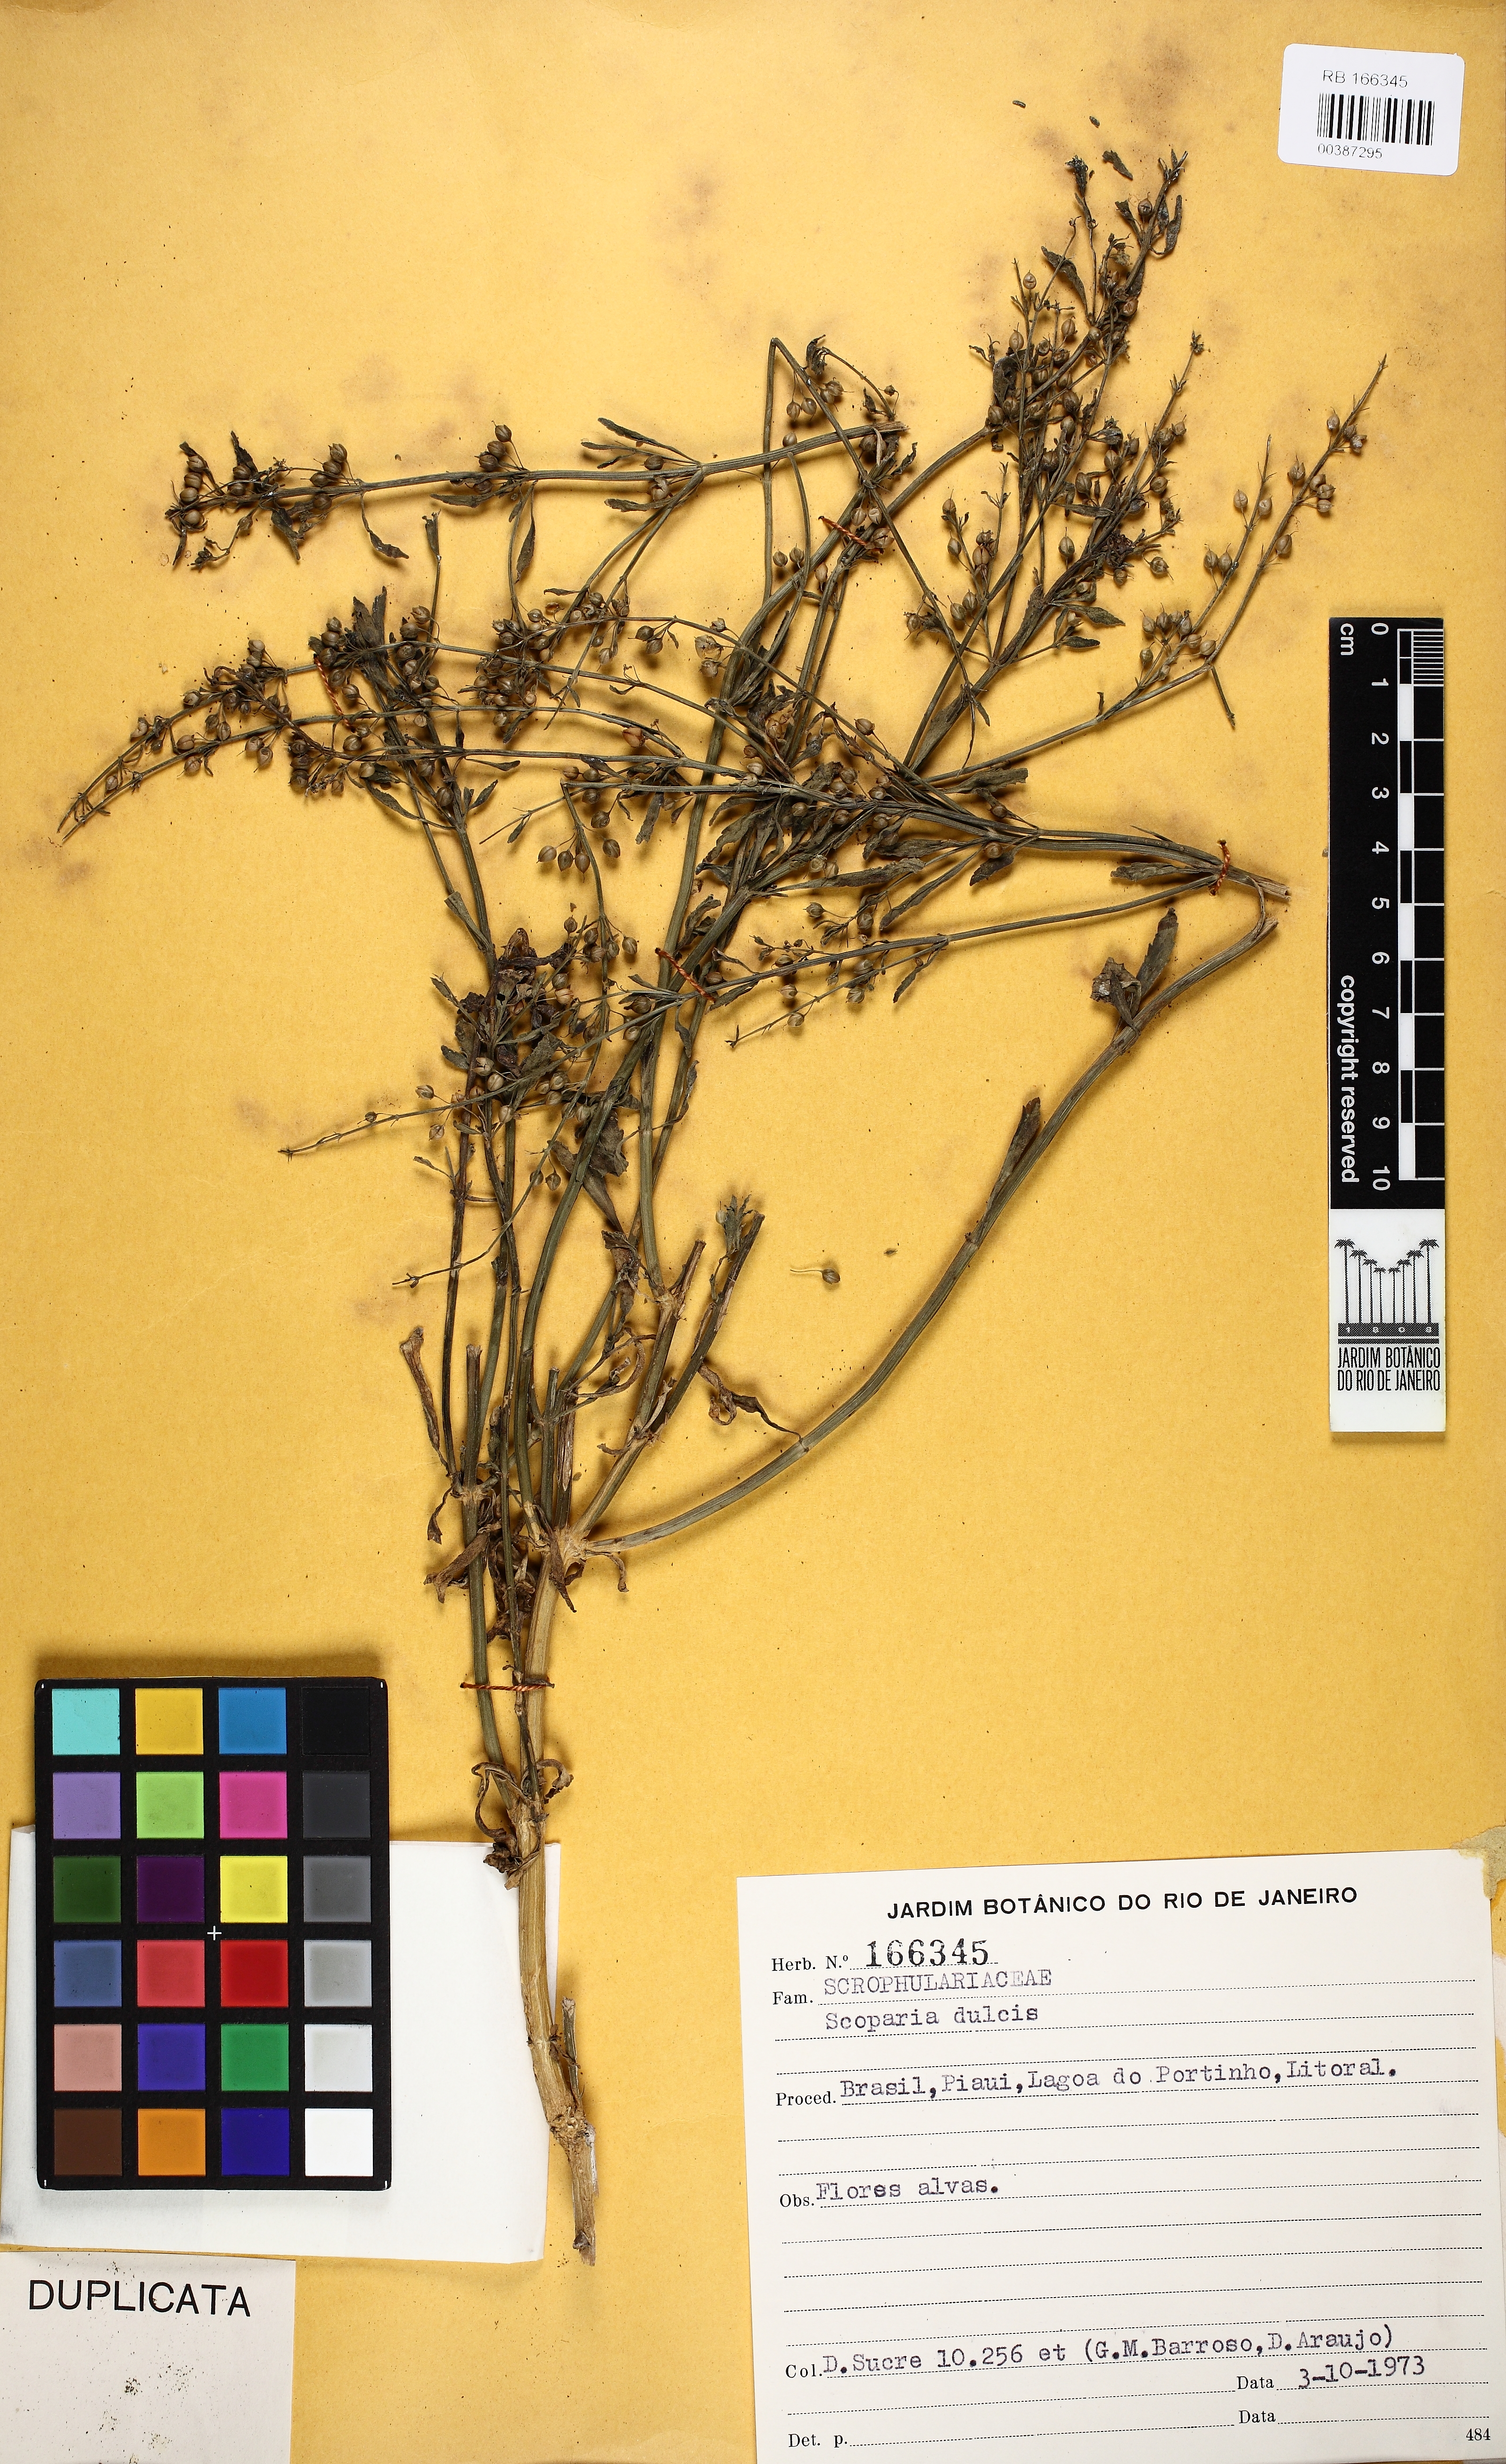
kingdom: Plantae
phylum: Tracheophyta
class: Magnoliopsida
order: Lamiales
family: Plantaginaceae
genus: Scoparia
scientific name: Scoparia dulcis
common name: Scoparia-weed
